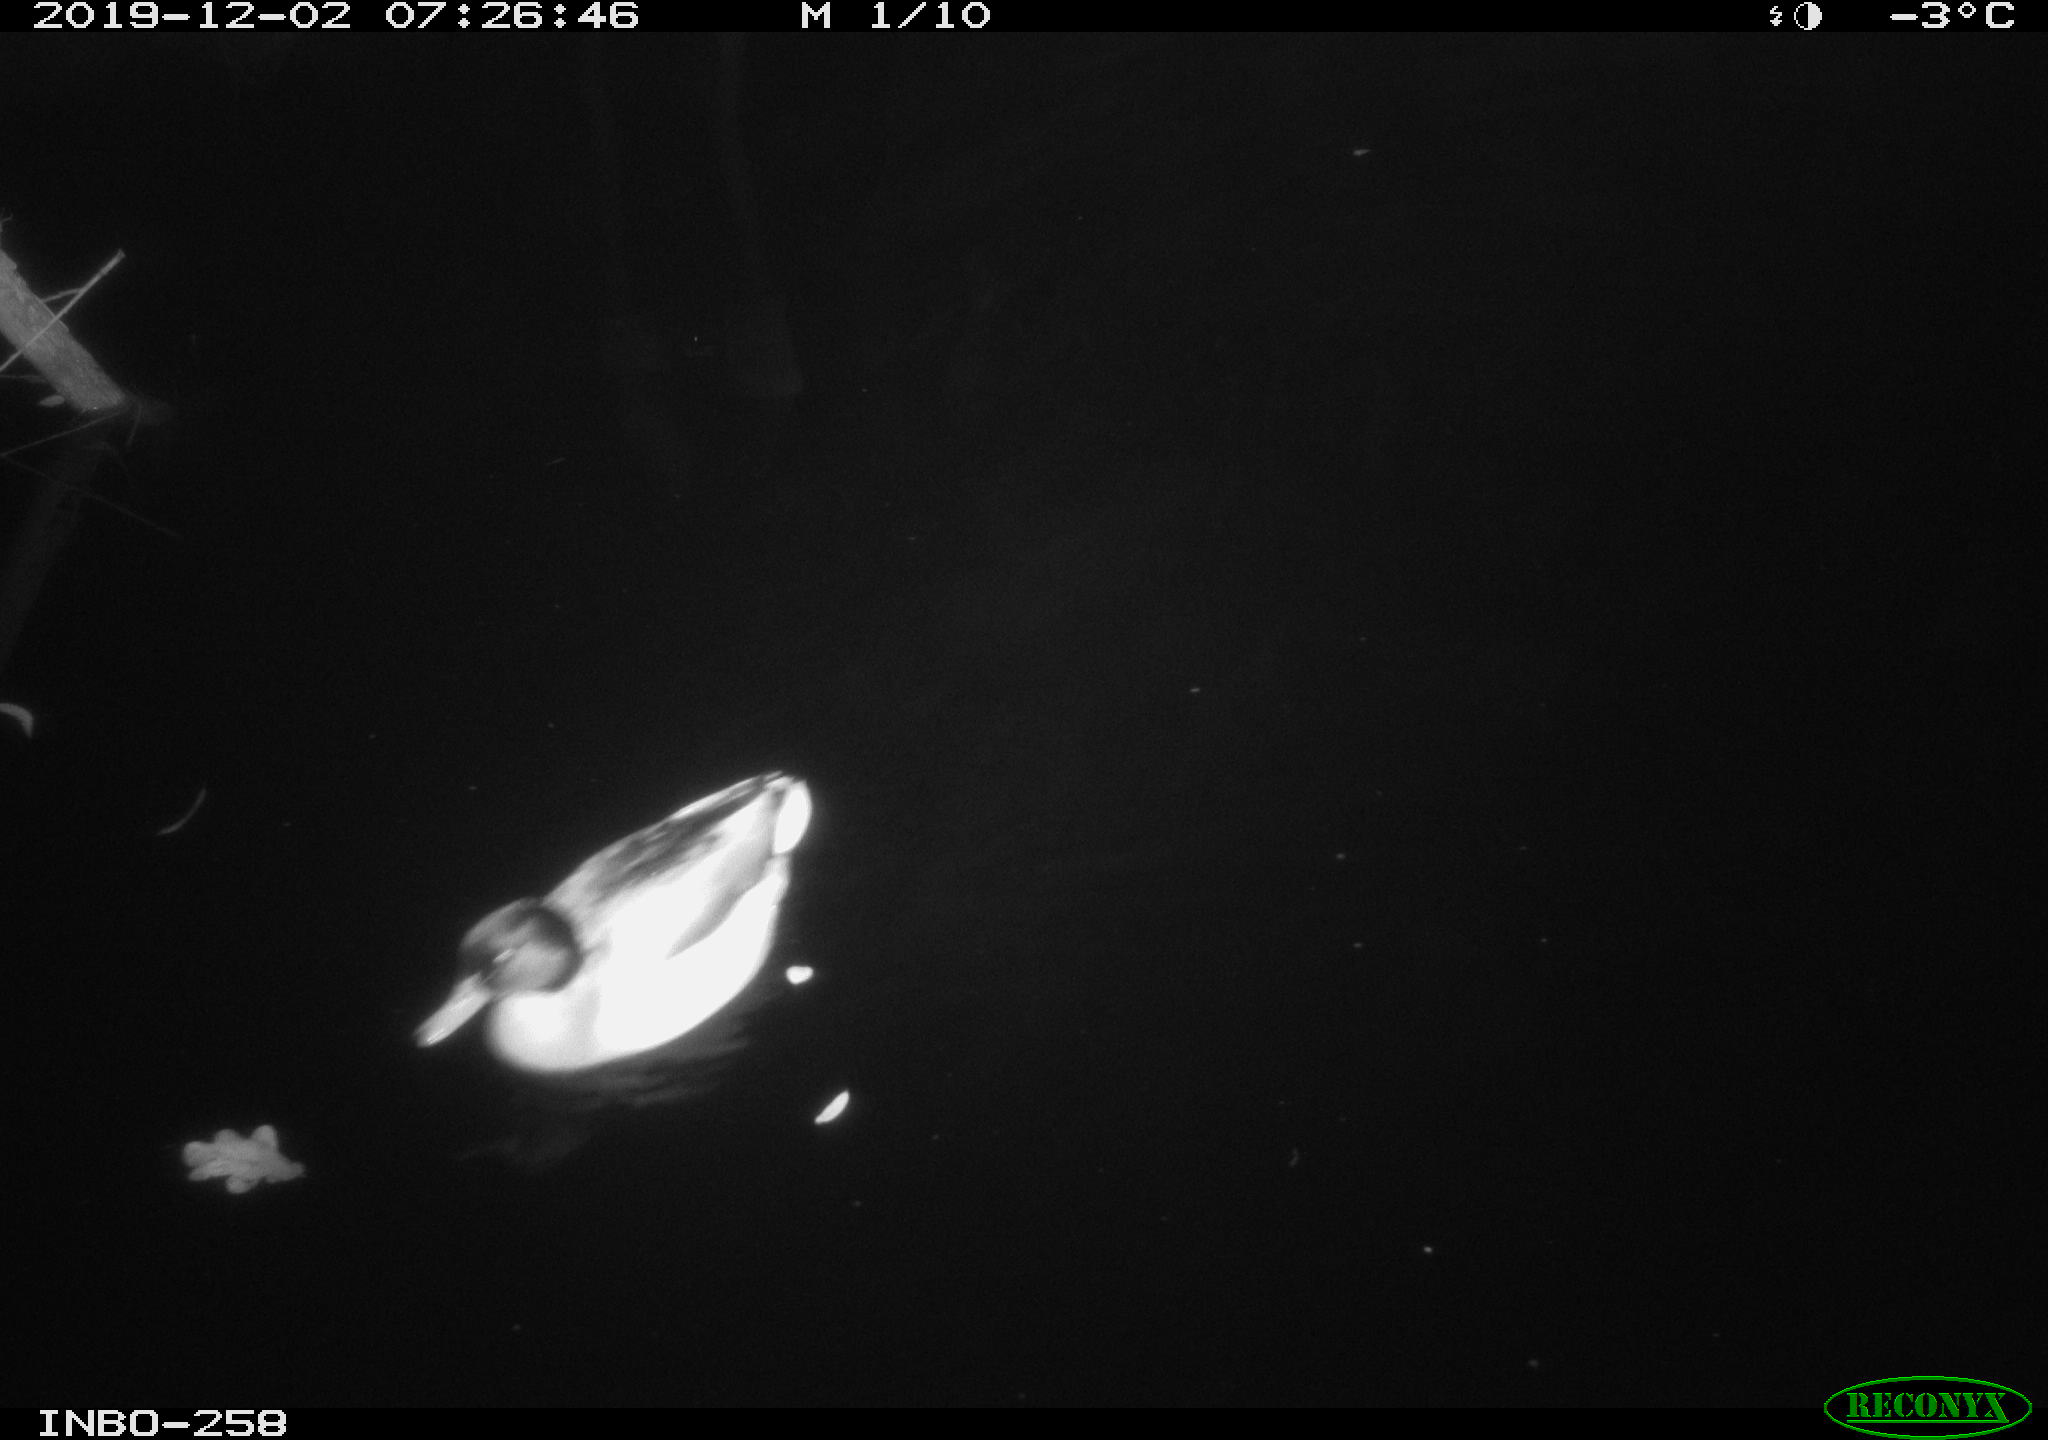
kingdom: Animalia
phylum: Chordata
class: Aves
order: Anseriformes
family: Anatidae
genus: Anas
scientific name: Anas platyrhynchos
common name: Mallard
